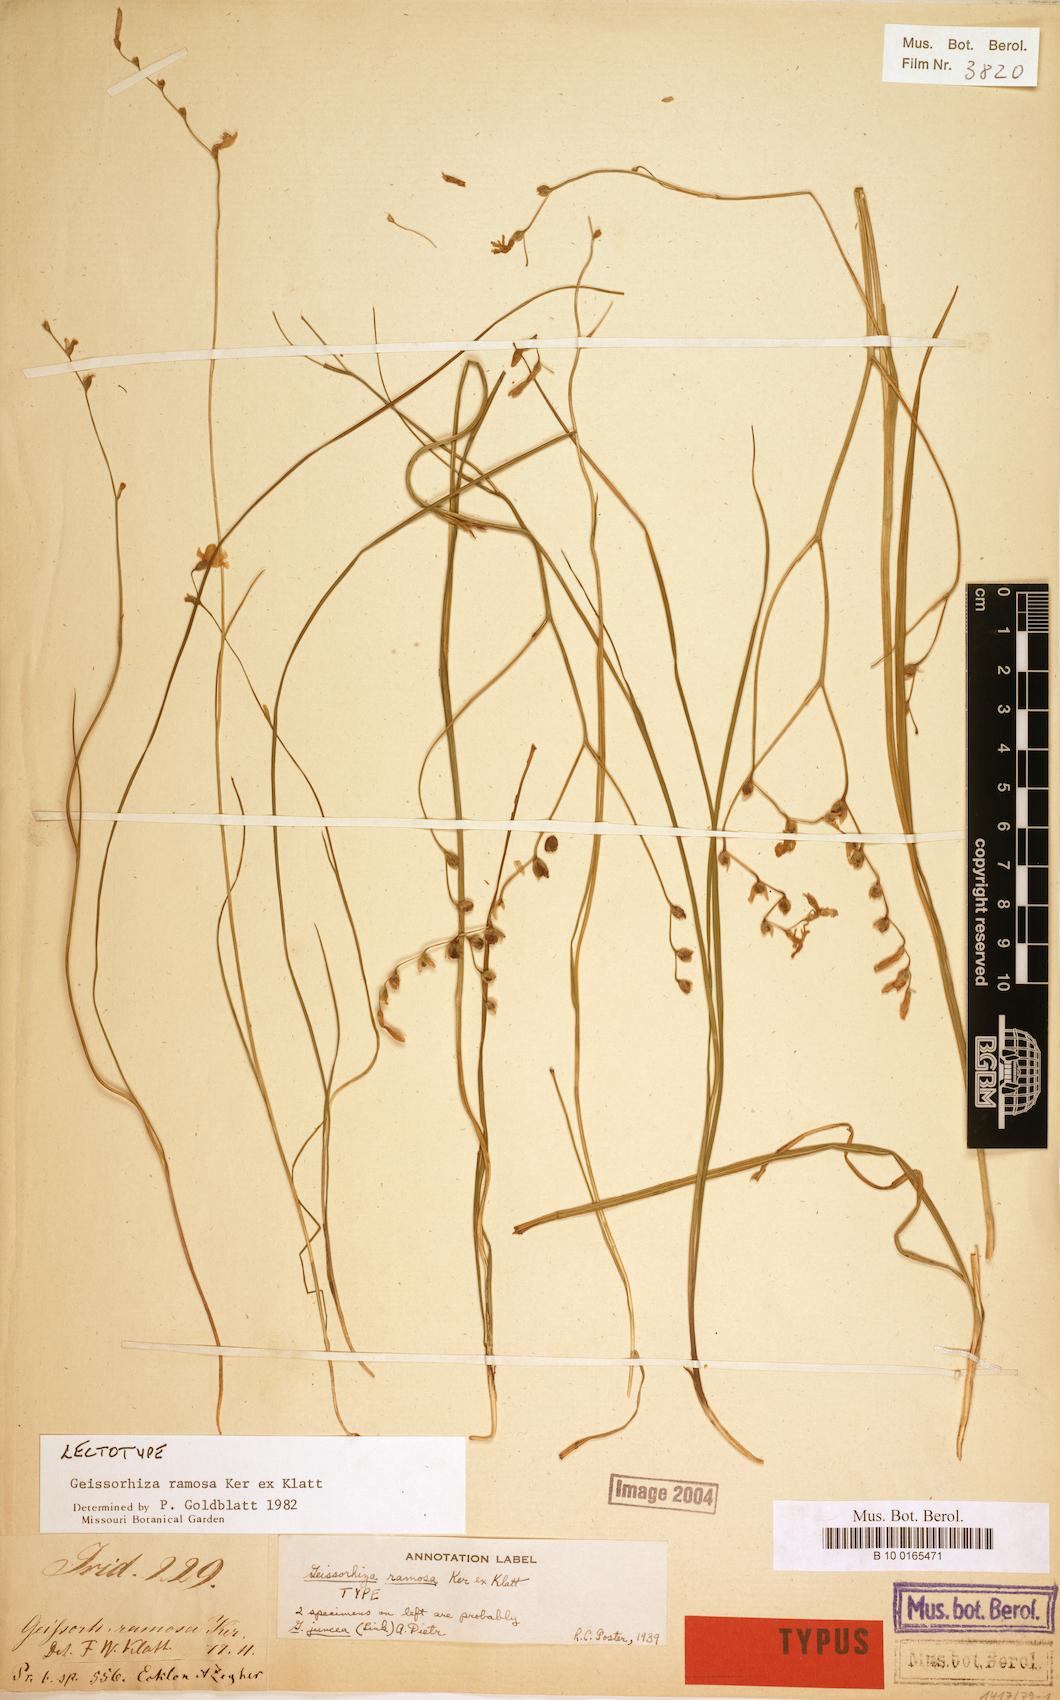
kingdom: Plantae
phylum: Tracheophyta
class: Liliopsida
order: Asparagales
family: Iridaceae
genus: Geissorhiza
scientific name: Geissorhiza ramosa
